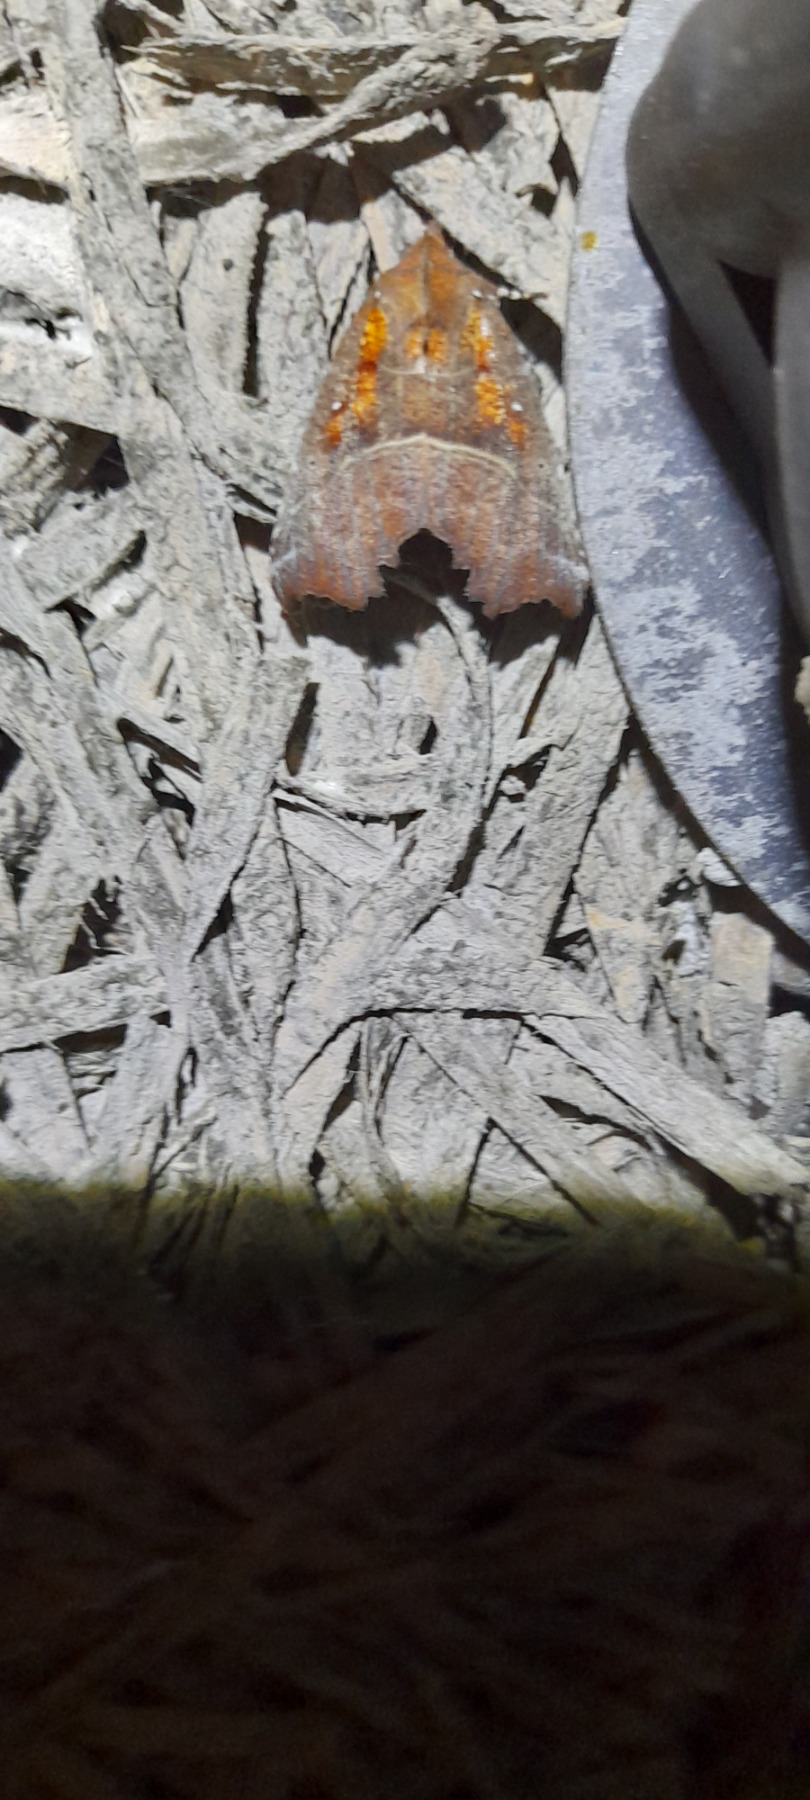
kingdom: Animalia
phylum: Arthropoda
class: Insecta
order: Lepidoptera
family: Erebidae
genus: Scoliopteryx
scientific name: Scoliopteryx libatrix
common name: Husmoderugle
